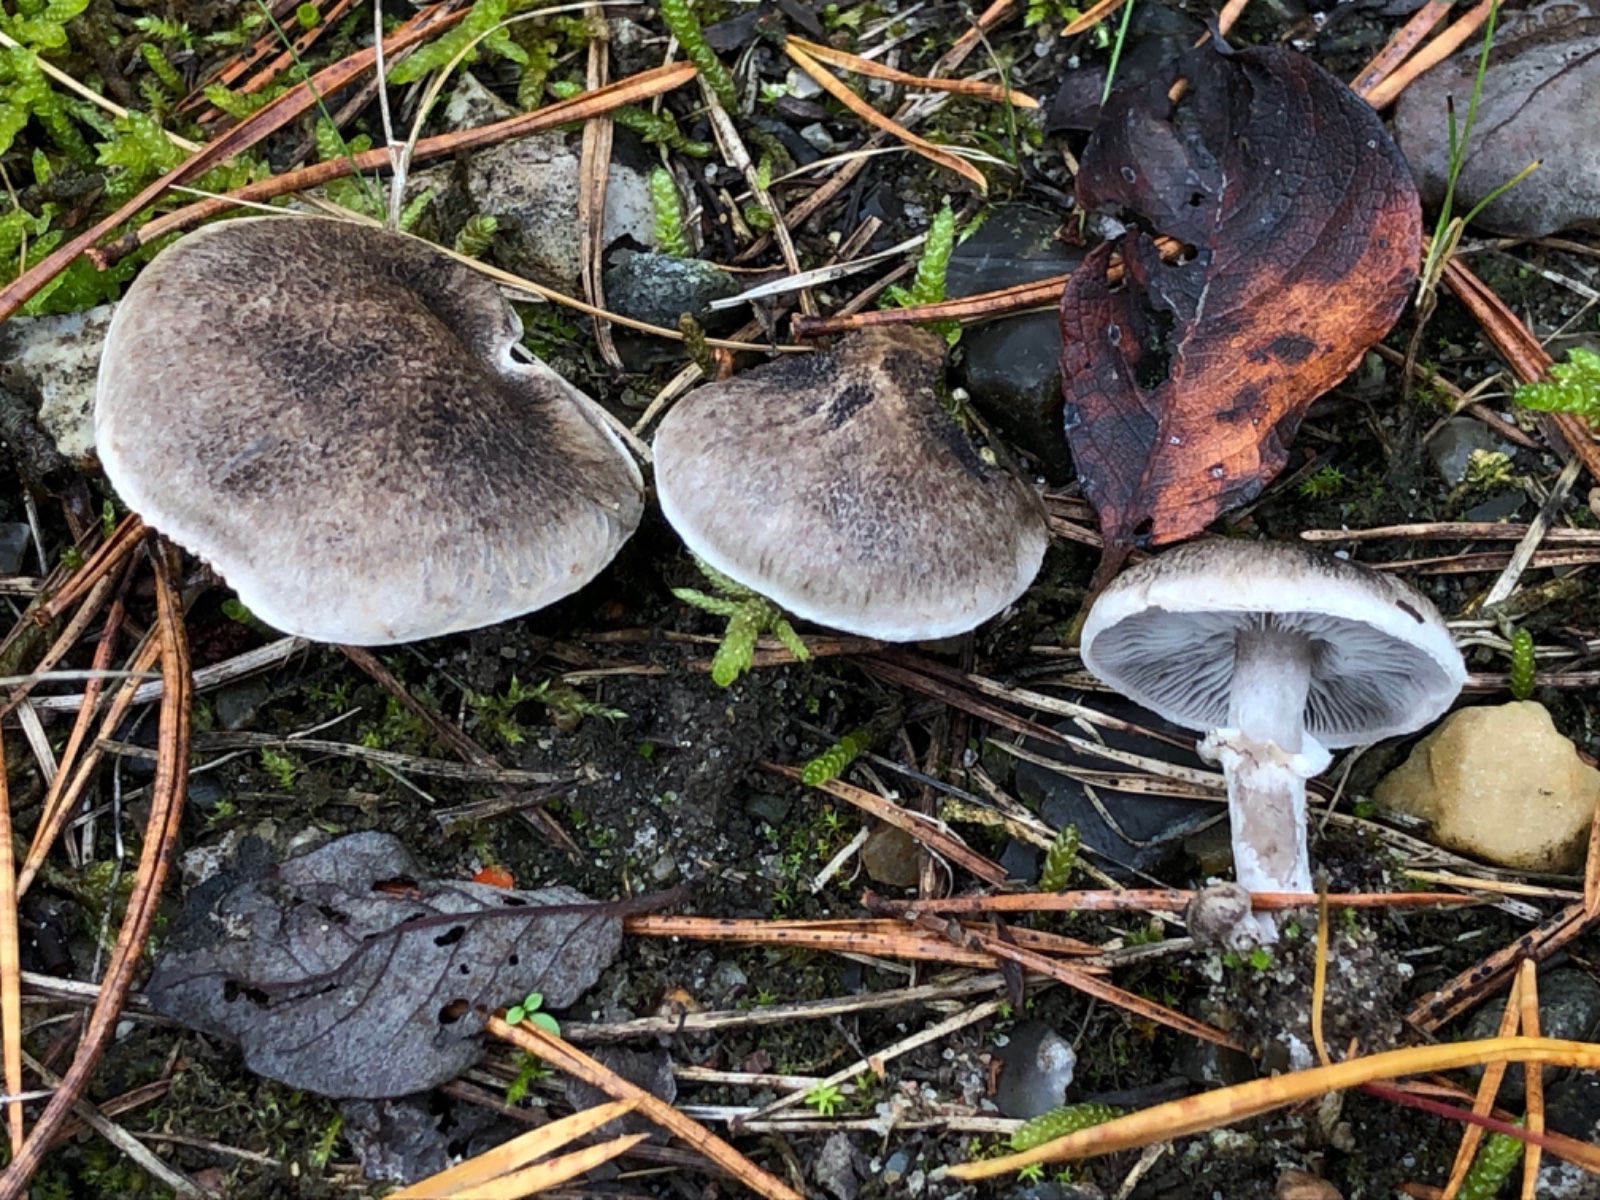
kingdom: Fungi
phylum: Basidiomycota
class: Agaricomycetes
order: Agaricales
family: Tricholomataceae
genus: Tricholoma
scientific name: Tricholoma cingulatum
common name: ring-ridderhat
